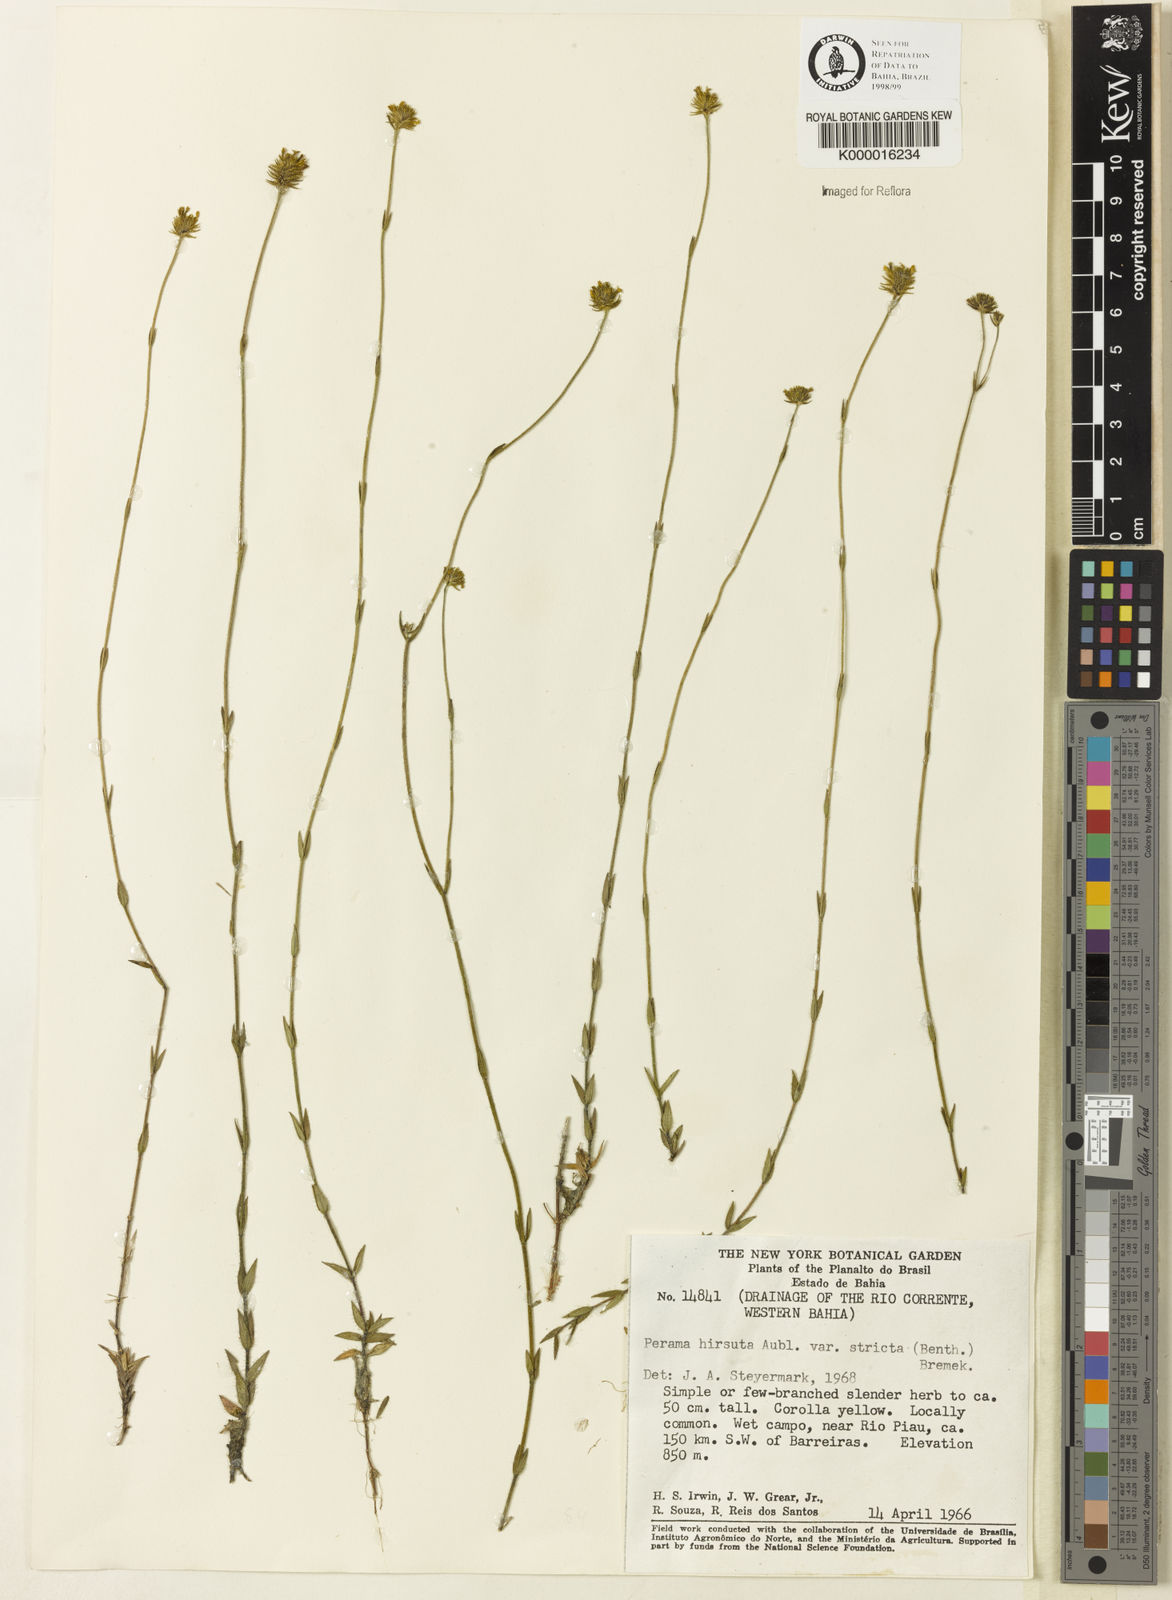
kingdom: Plantae
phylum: Tracheophyta
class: Magnoliopsida
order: Gentianales
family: Rubiaceae
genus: Perama
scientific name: Perama hirsuta
